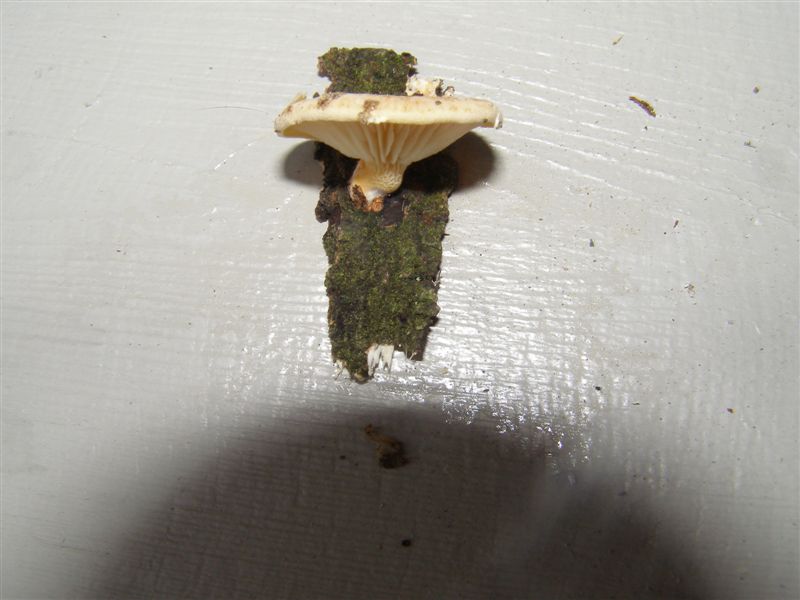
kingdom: Fungi
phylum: Basidiomycota
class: Agaricomycetes
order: Polyporales
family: Polyporaceae
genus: Neofavolus
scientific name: Neofavolus suavissimus
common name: anishat
